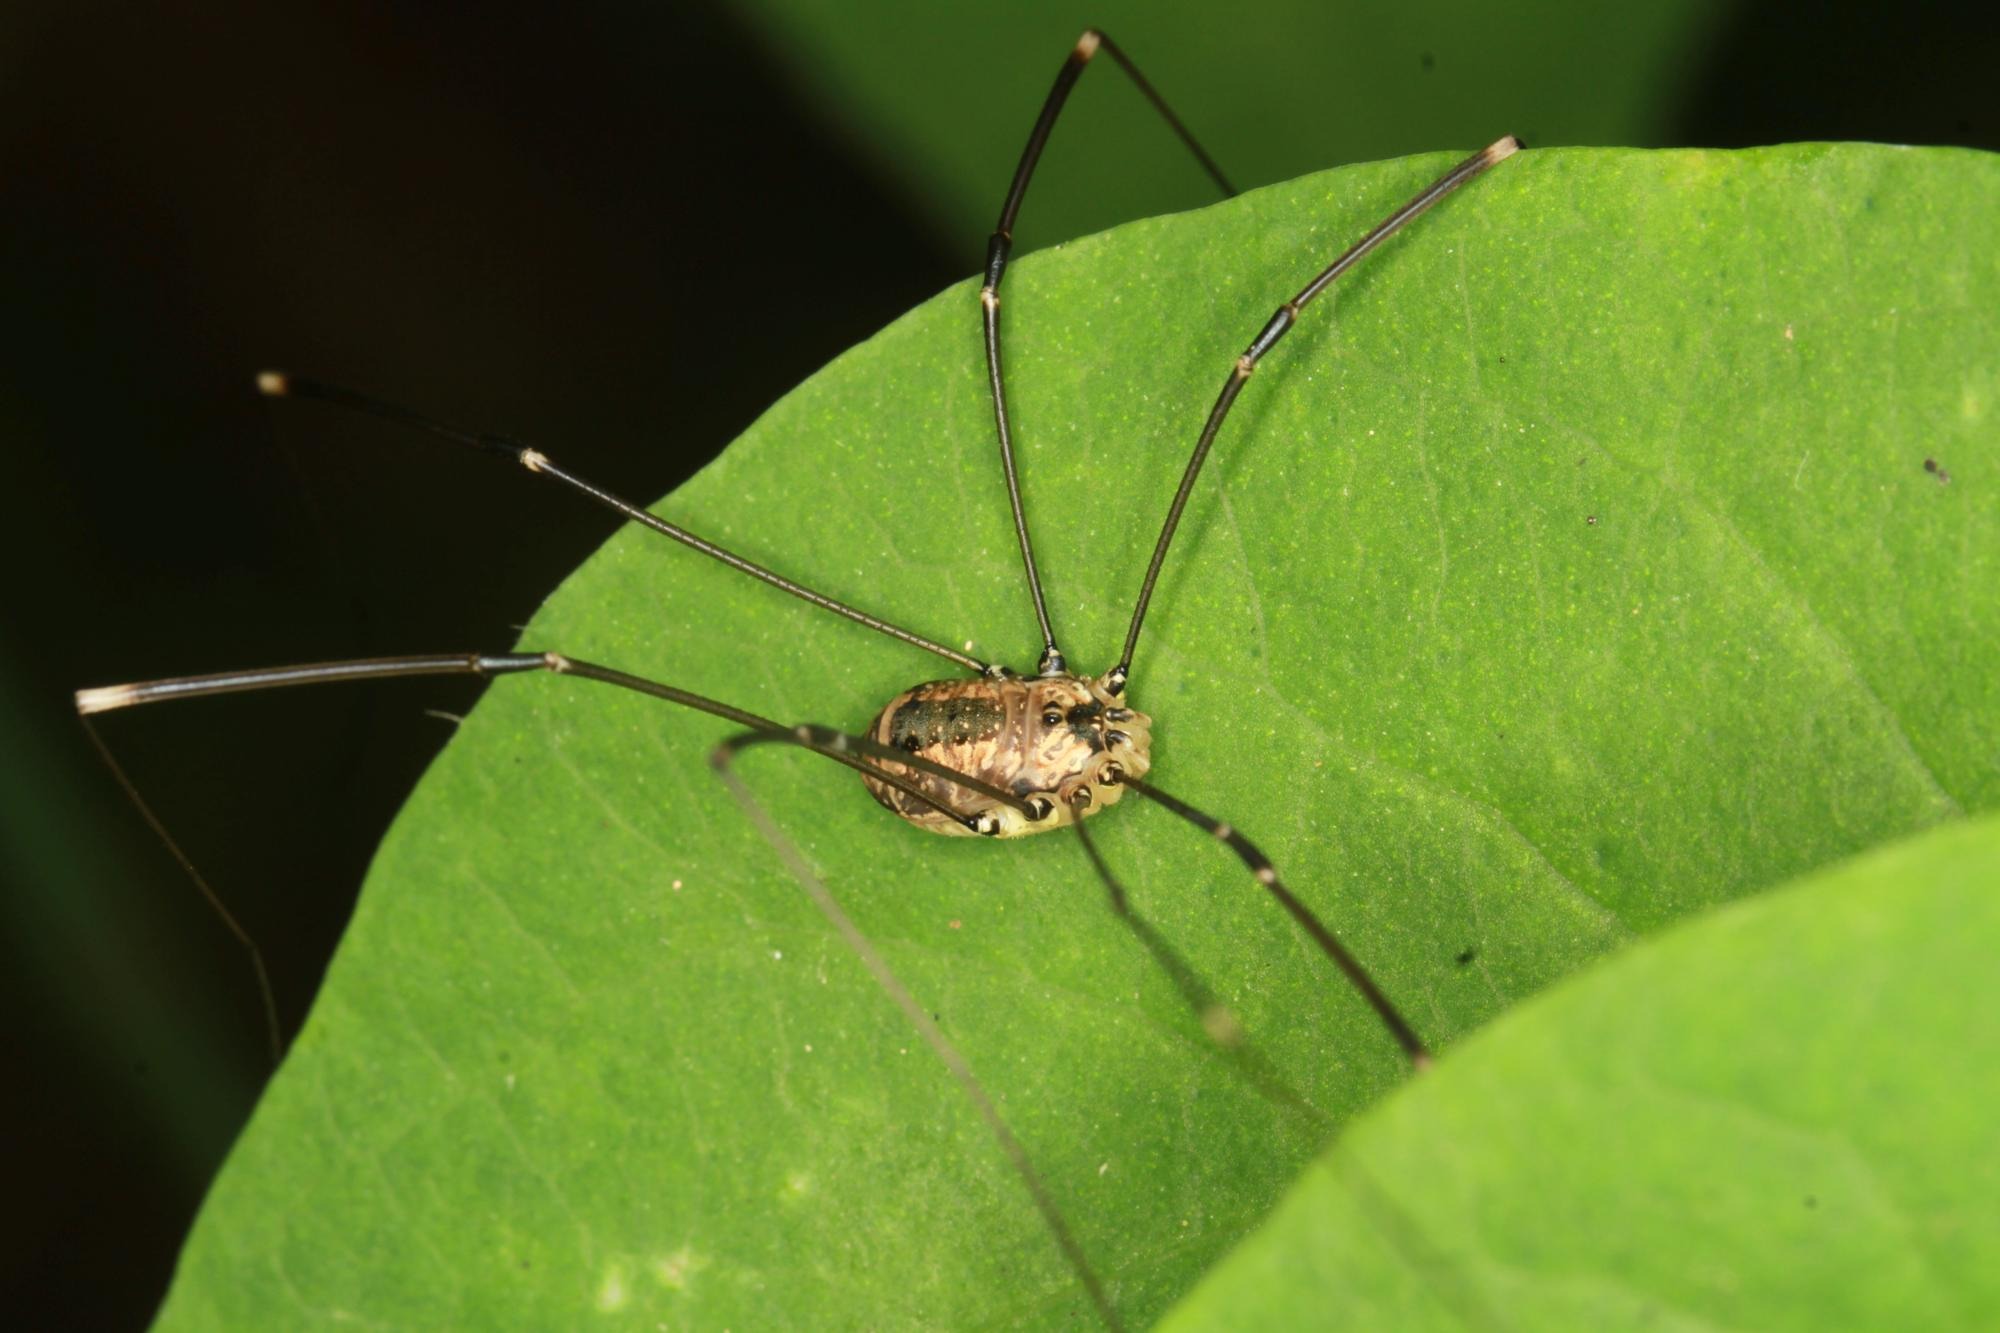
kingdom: Animalia
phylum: Arthropoda
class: Arachnida
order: Opiliones
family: Sclerosomatidae
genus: Leiobunum
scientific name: Leiobunum rotundum
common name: Rød langbensmejer
